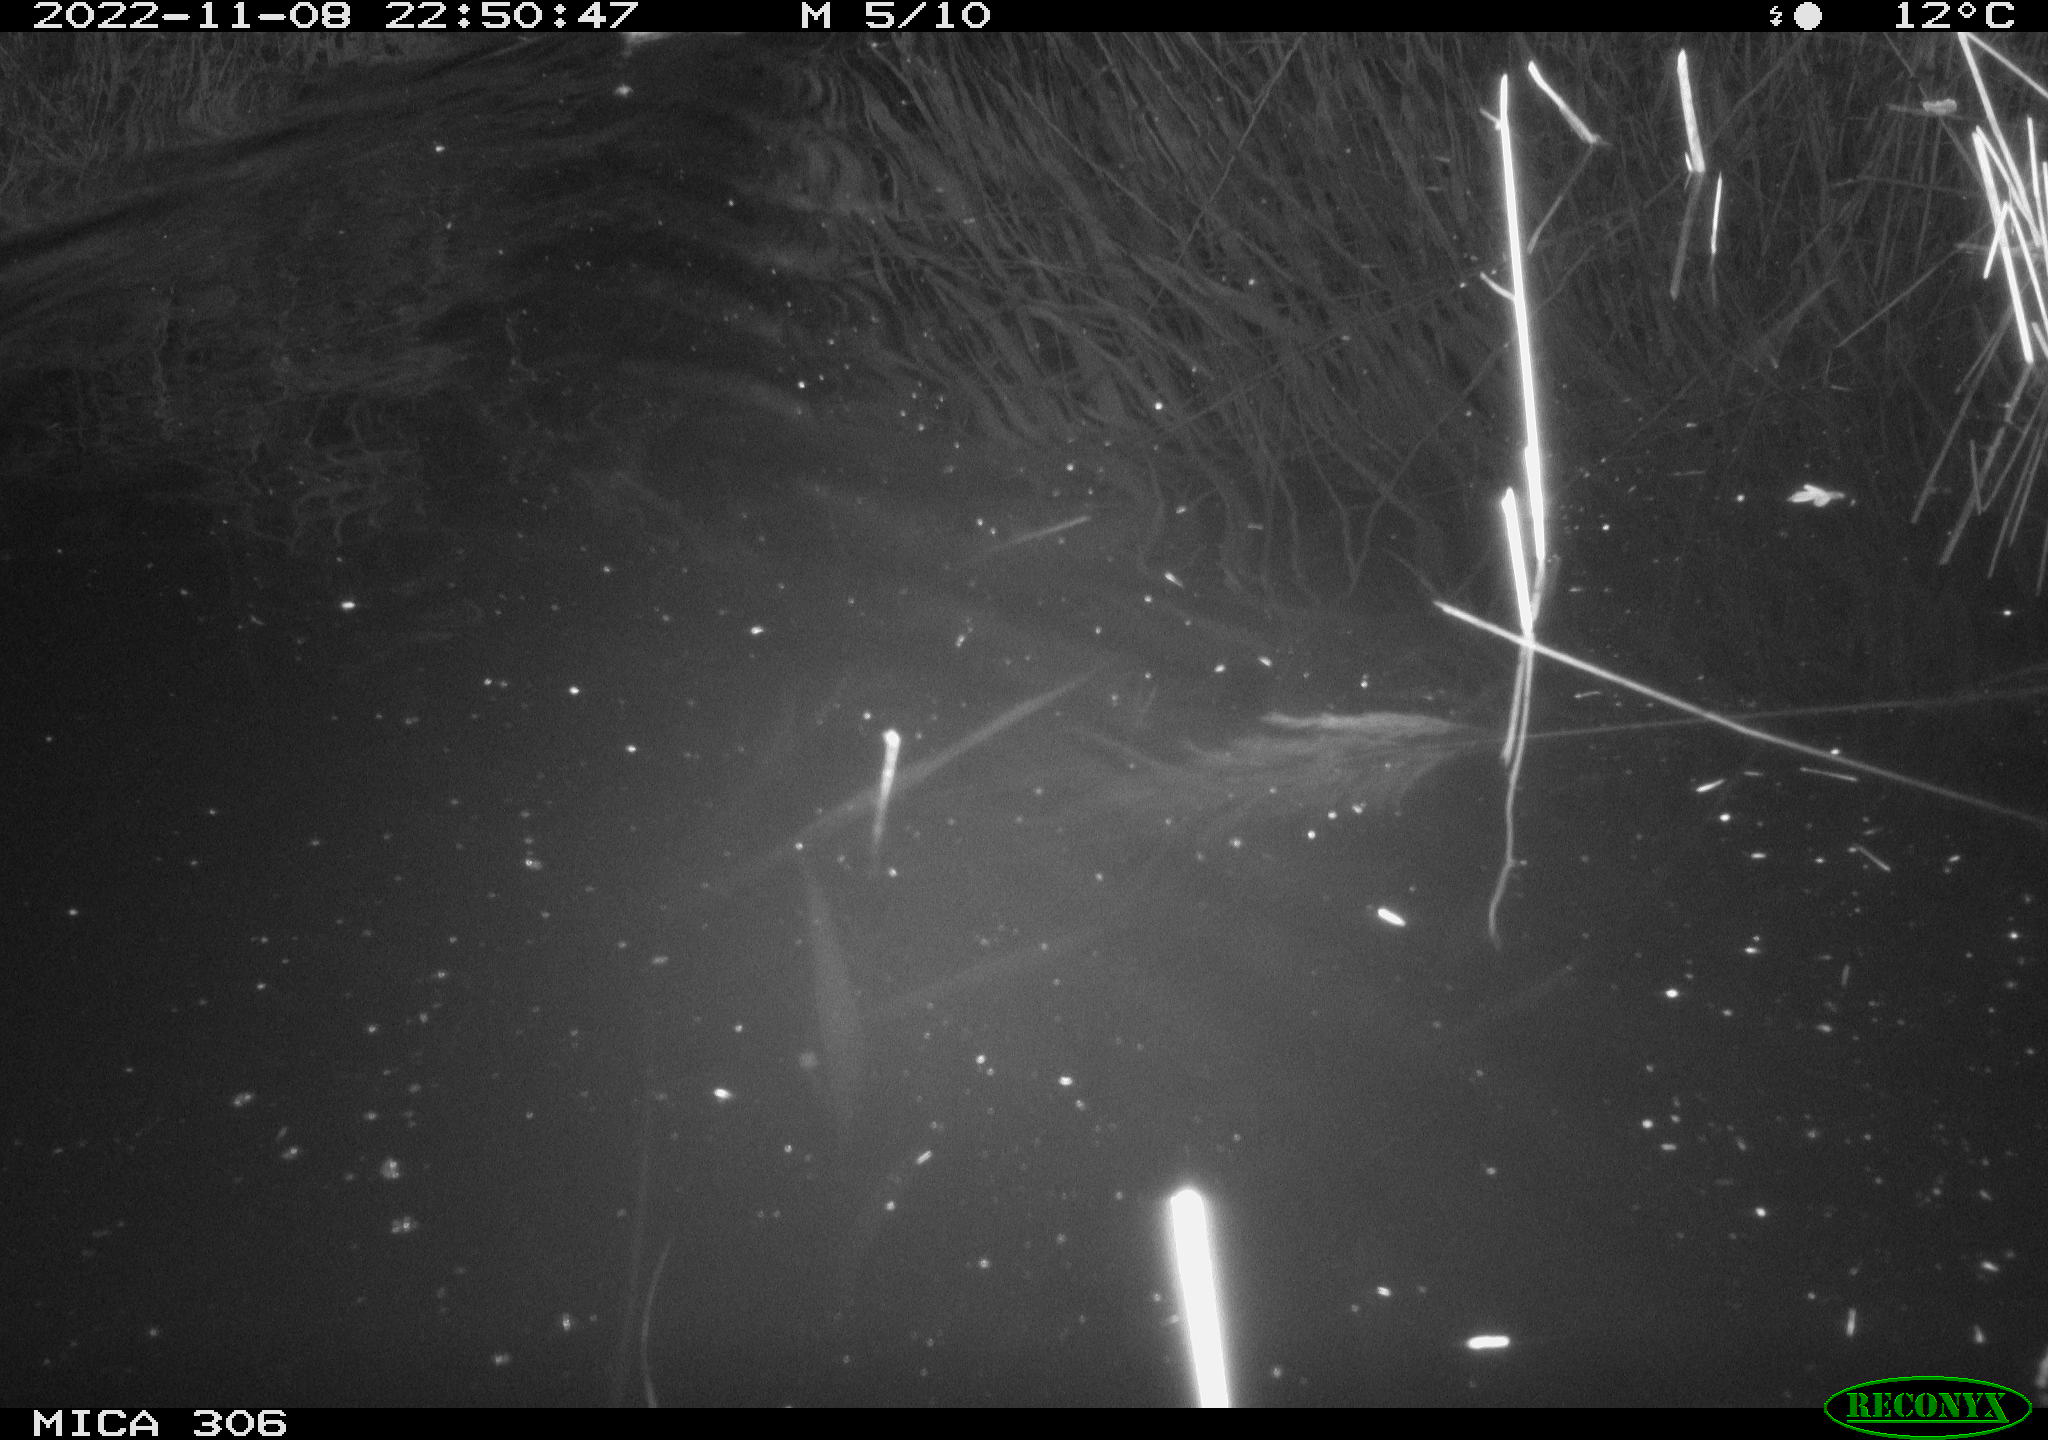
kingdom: Animalia
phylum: Chordata
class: Mammalia
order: Rodentia
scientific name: Rodentia
